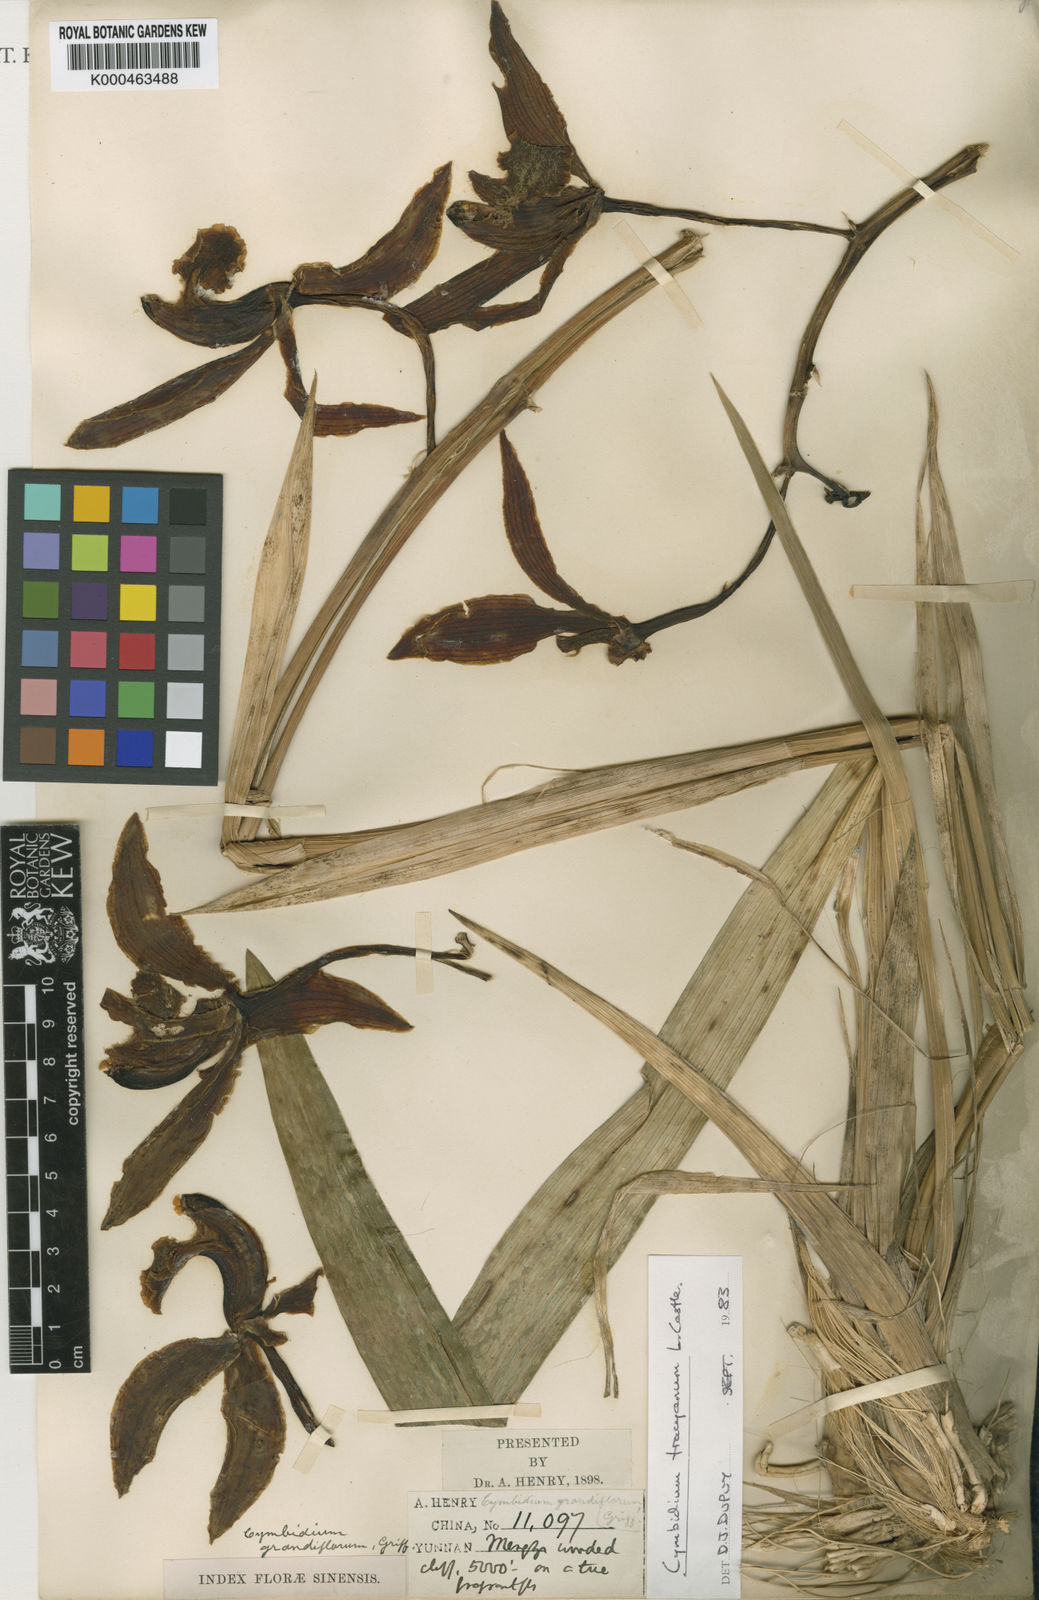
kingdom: Plantae
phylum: Tracheophyta
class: Liliopsida
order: Asparagales
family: Orchidaceae
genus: Cymbidium
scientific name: Cymbidium tracyanum
